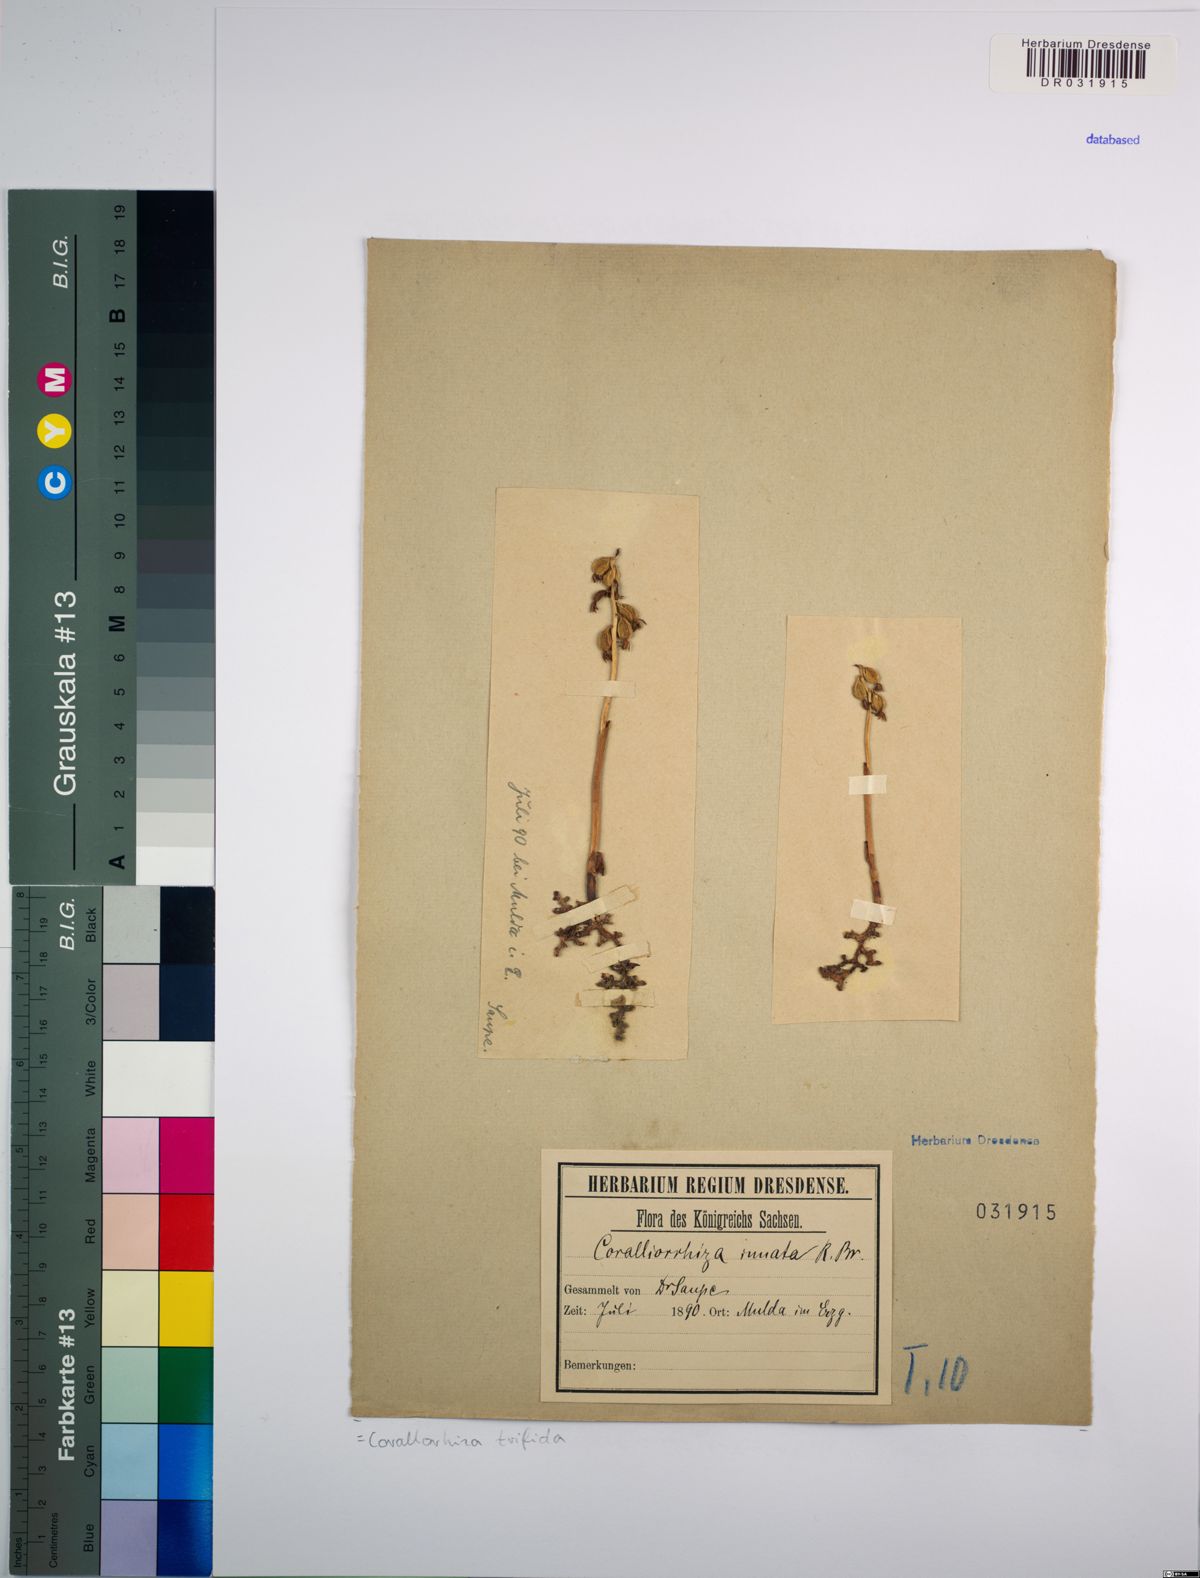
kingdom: Plantae
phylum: Tracheophyta
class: Liliopsida
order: Asparagales
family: Orchidaceae
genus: Corallorhiza
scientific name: Corallorhiza trifida
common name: Yellow coralroot
